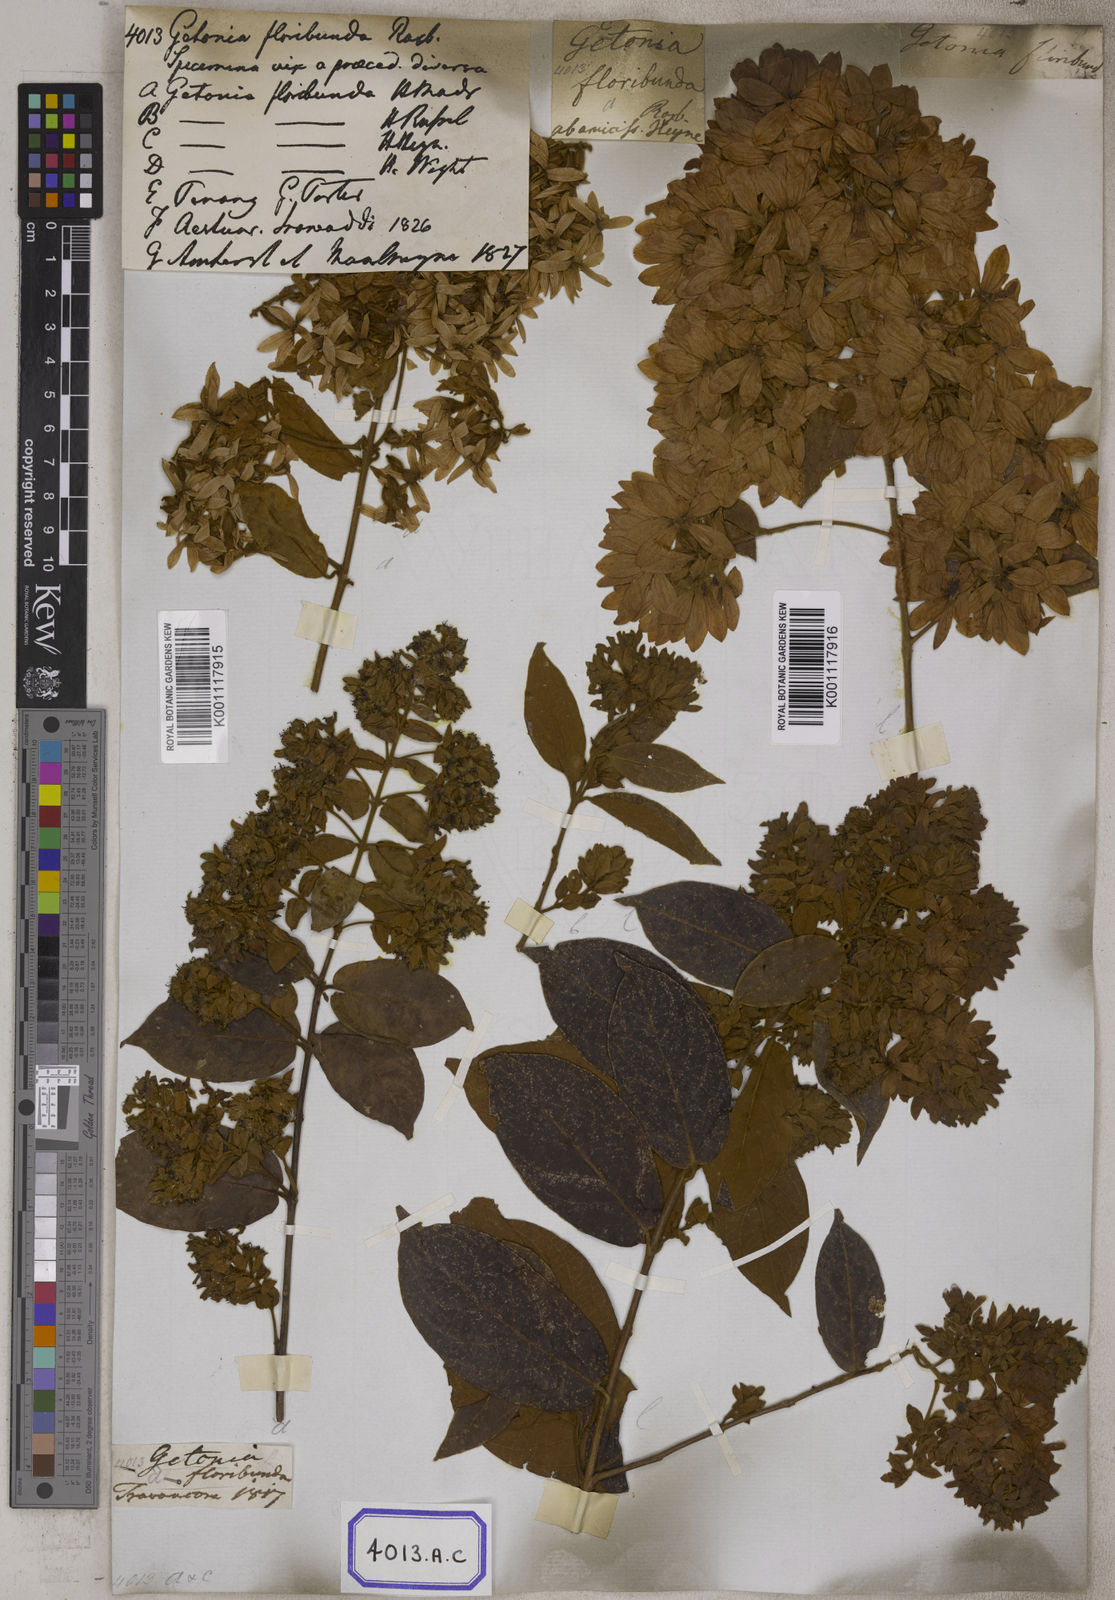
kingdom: Plantae
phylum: Tracheophyta
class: Magnoliopsida
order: Myrtales
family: Combretaceae
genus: Getonia
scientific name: Getonia floribunda
